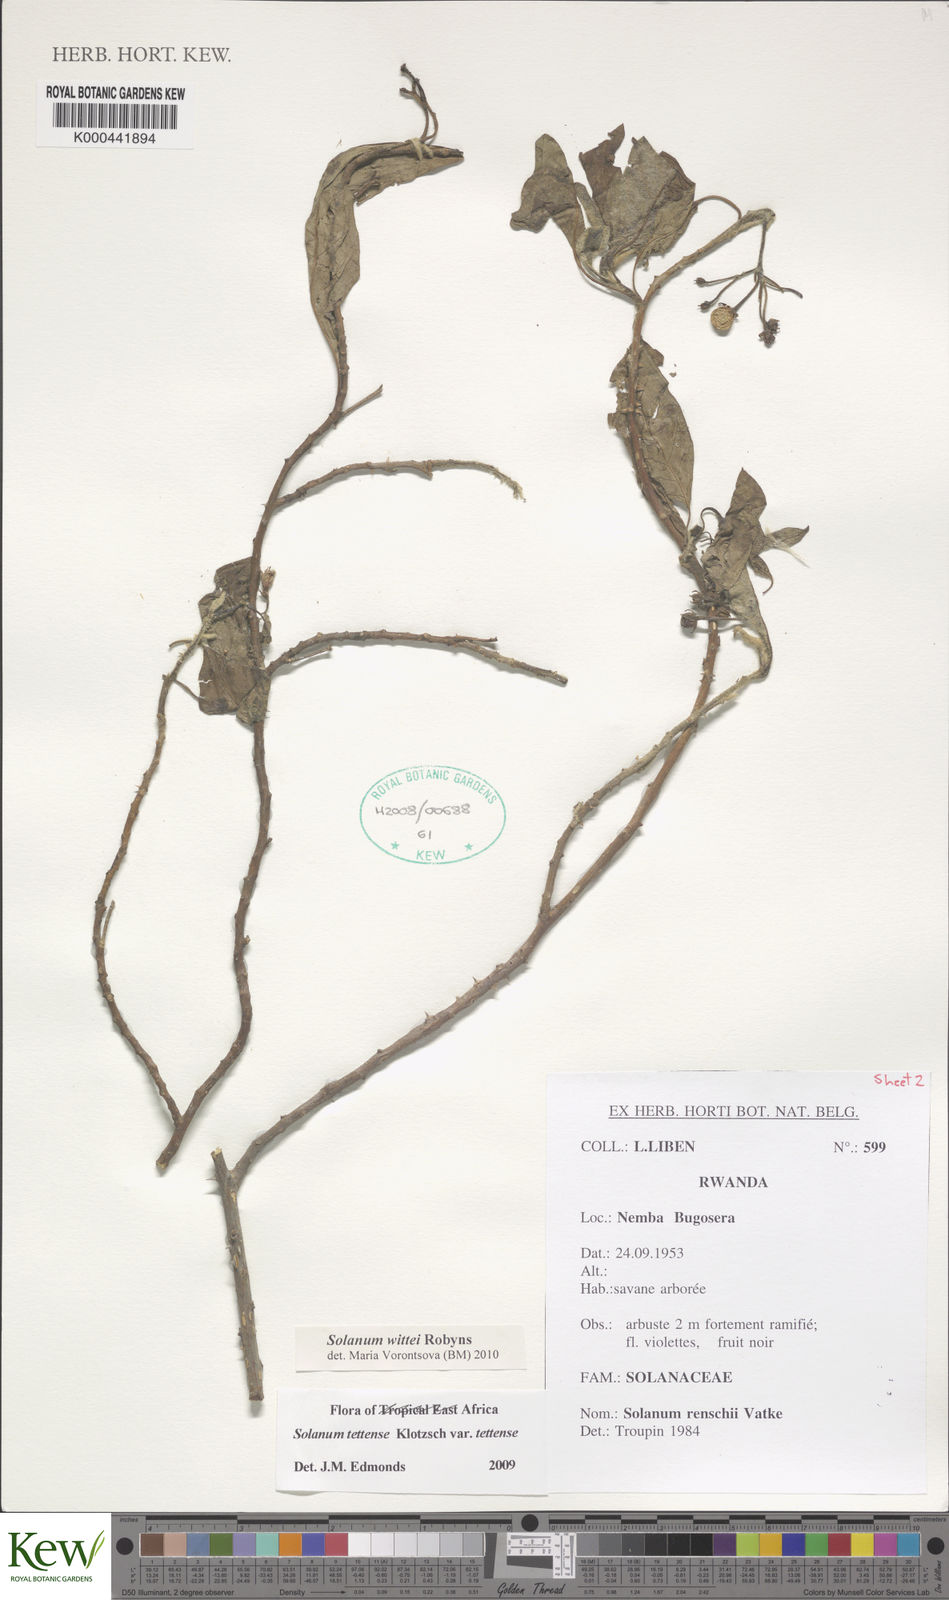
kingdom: Plantae
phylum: Tracheophyta
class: Magnoliopsida
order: Solanales
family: Solanaceae
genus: Solanum
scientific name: Solanum wittei
